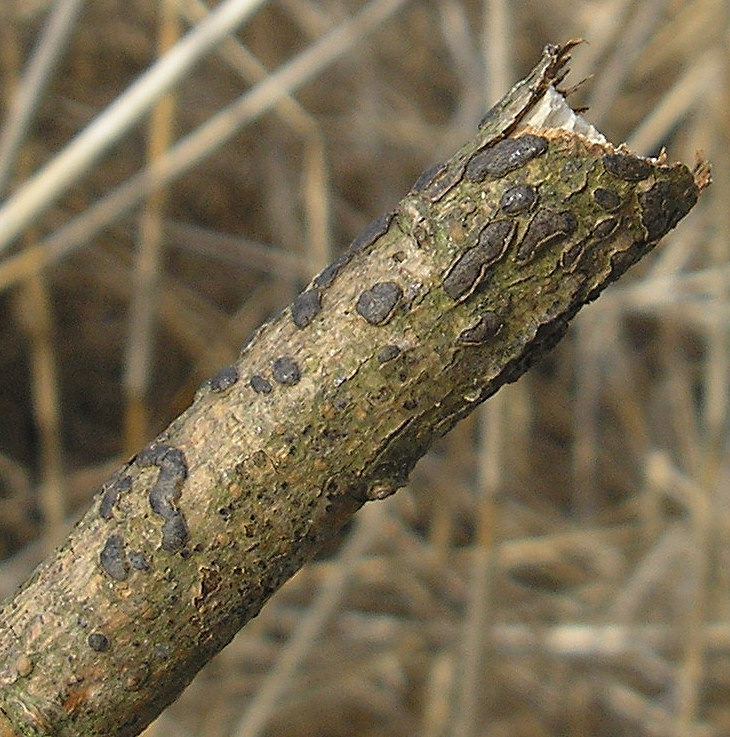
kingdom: Fungi
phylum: Ascomycota
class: Sordariomycetes
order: Xylariales
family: Diatrypaceae
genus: Diatrype
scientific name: Diatrype bullata
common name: pile-kulskorpe
